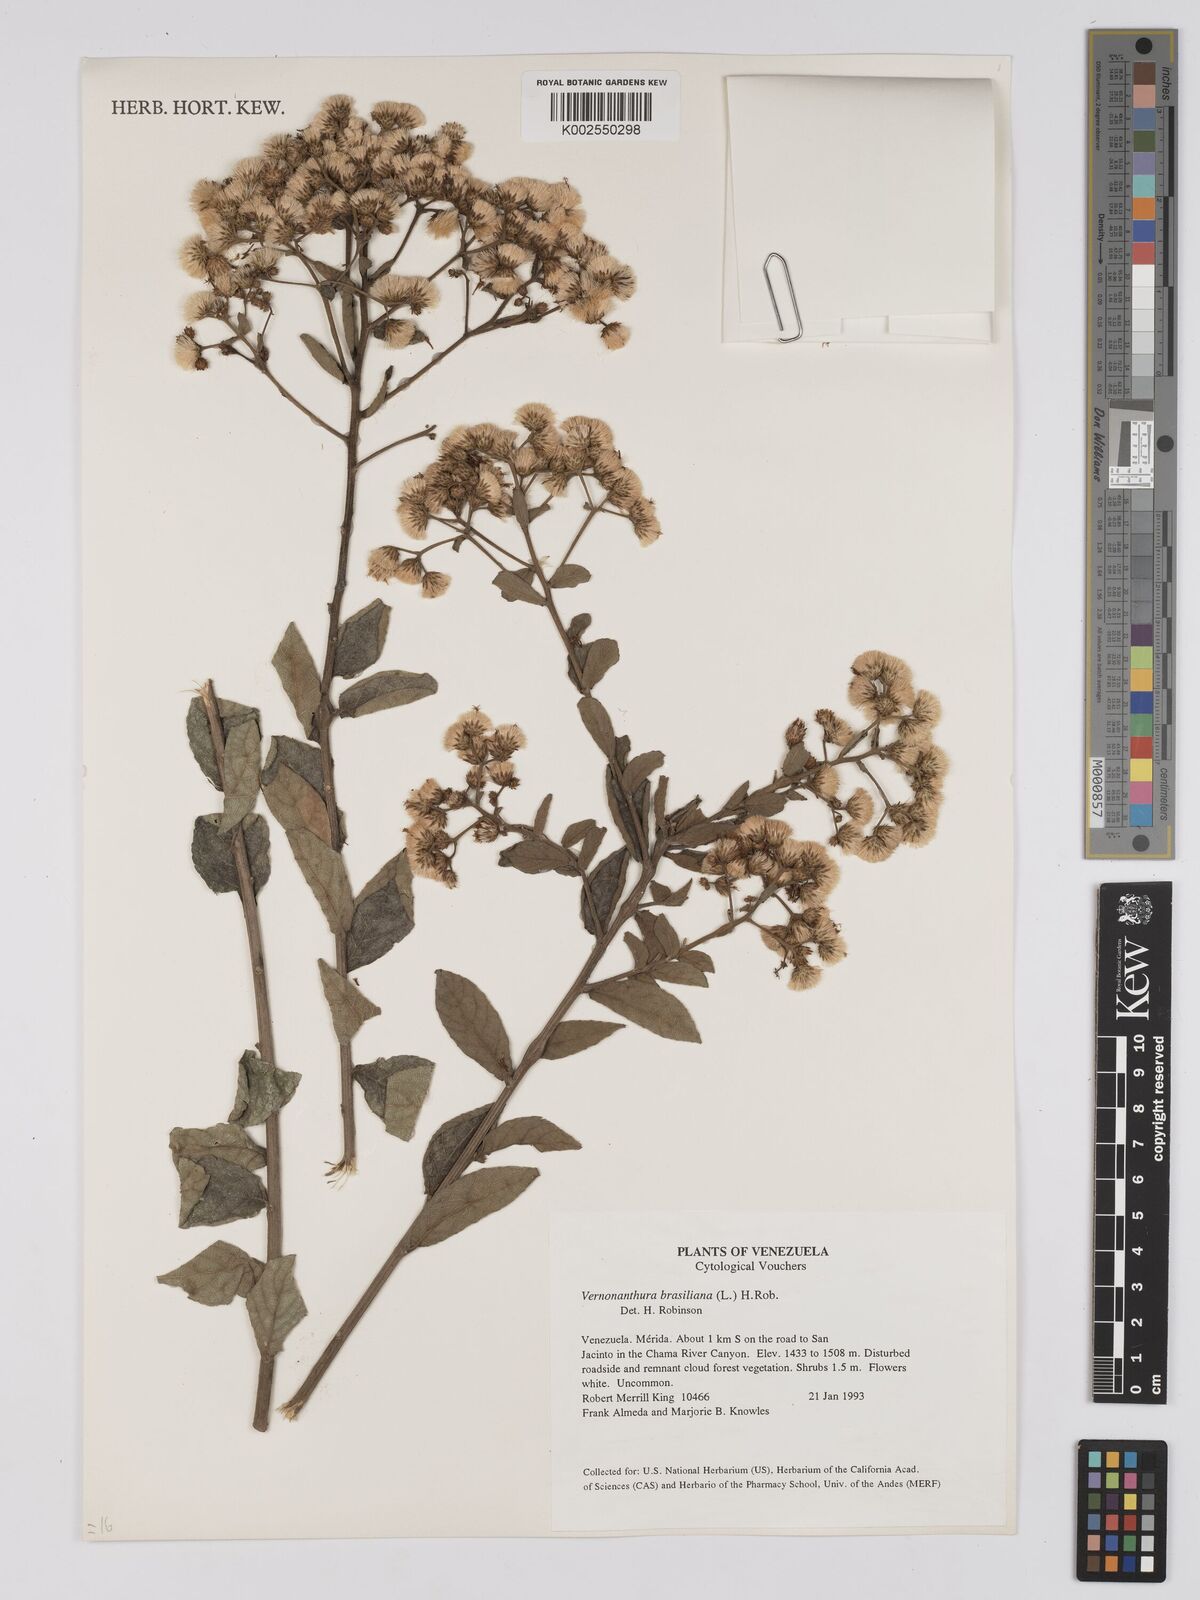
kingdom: Plantae
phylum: Tracheophyta
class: Magnoliopsida
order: Asterales
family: Asteraceae
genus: Vernonanthura
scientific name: Vernonanthura brasiliana
